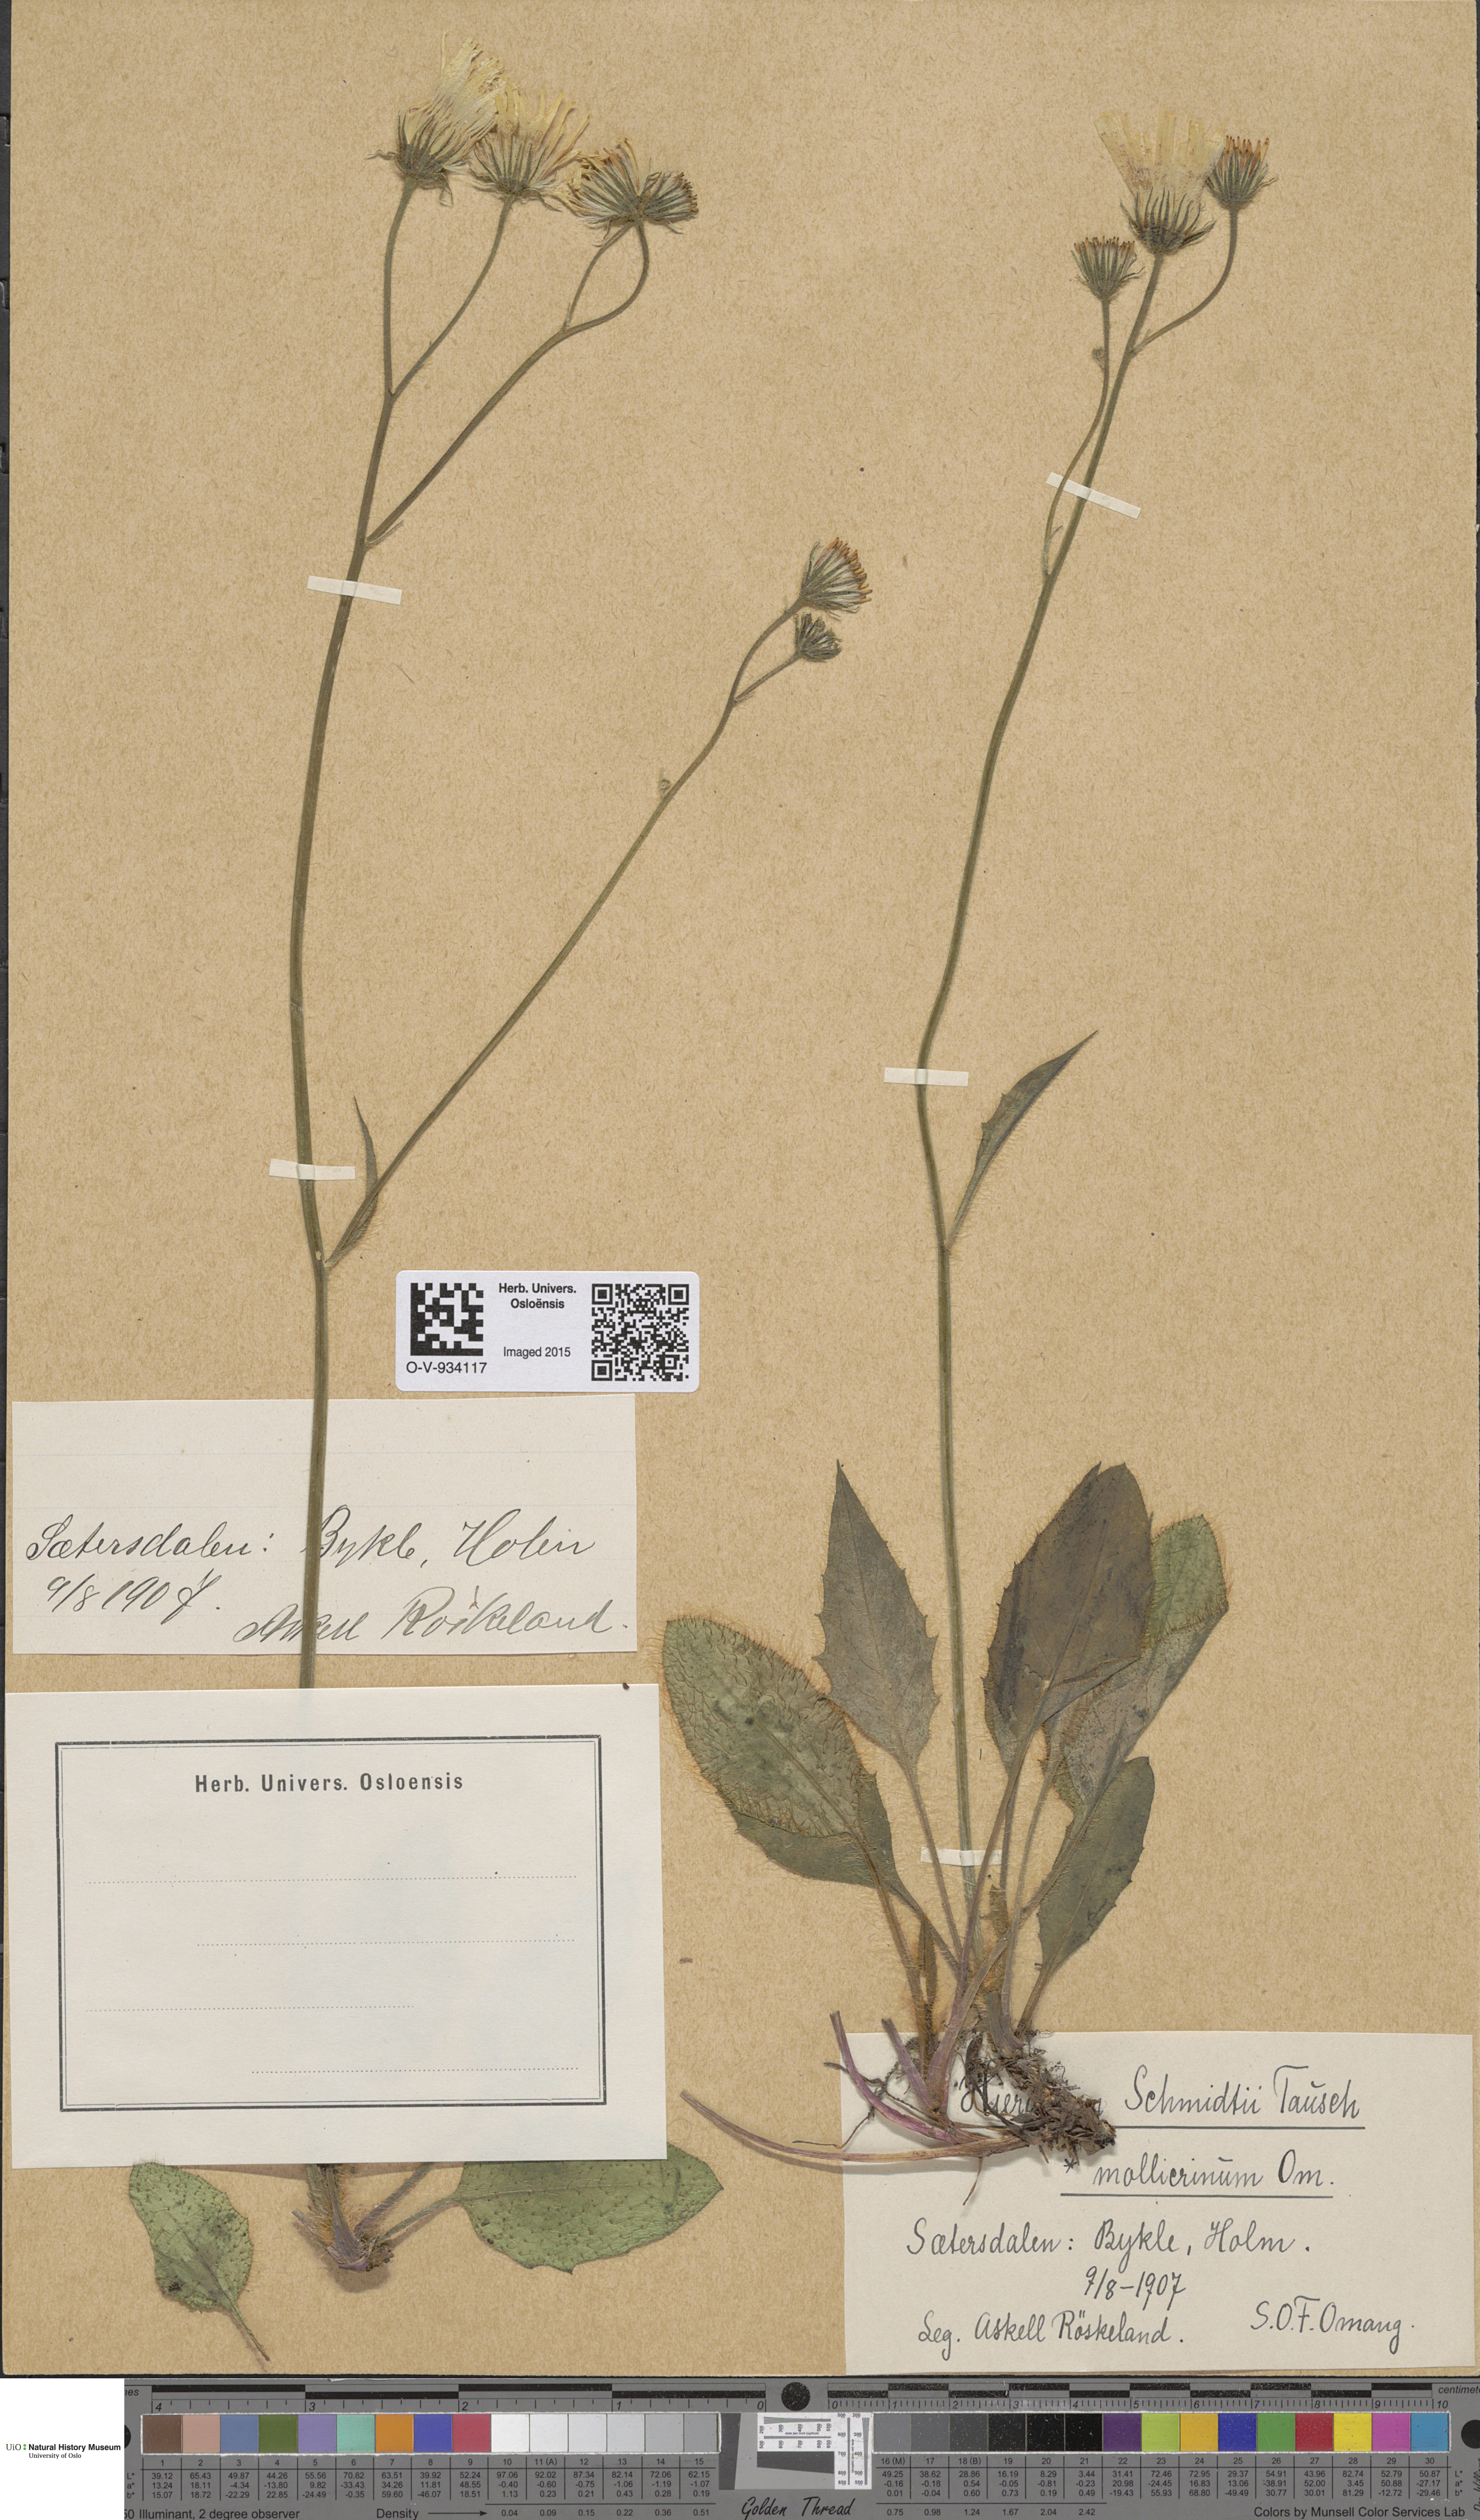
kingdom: Plantae
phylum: Tracheophyta
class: Magnoliopsida
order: Asterales
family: Asteraceae
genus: Hieracium
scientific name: Hieracium schmidtii
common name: Schmidt's hawkweed
